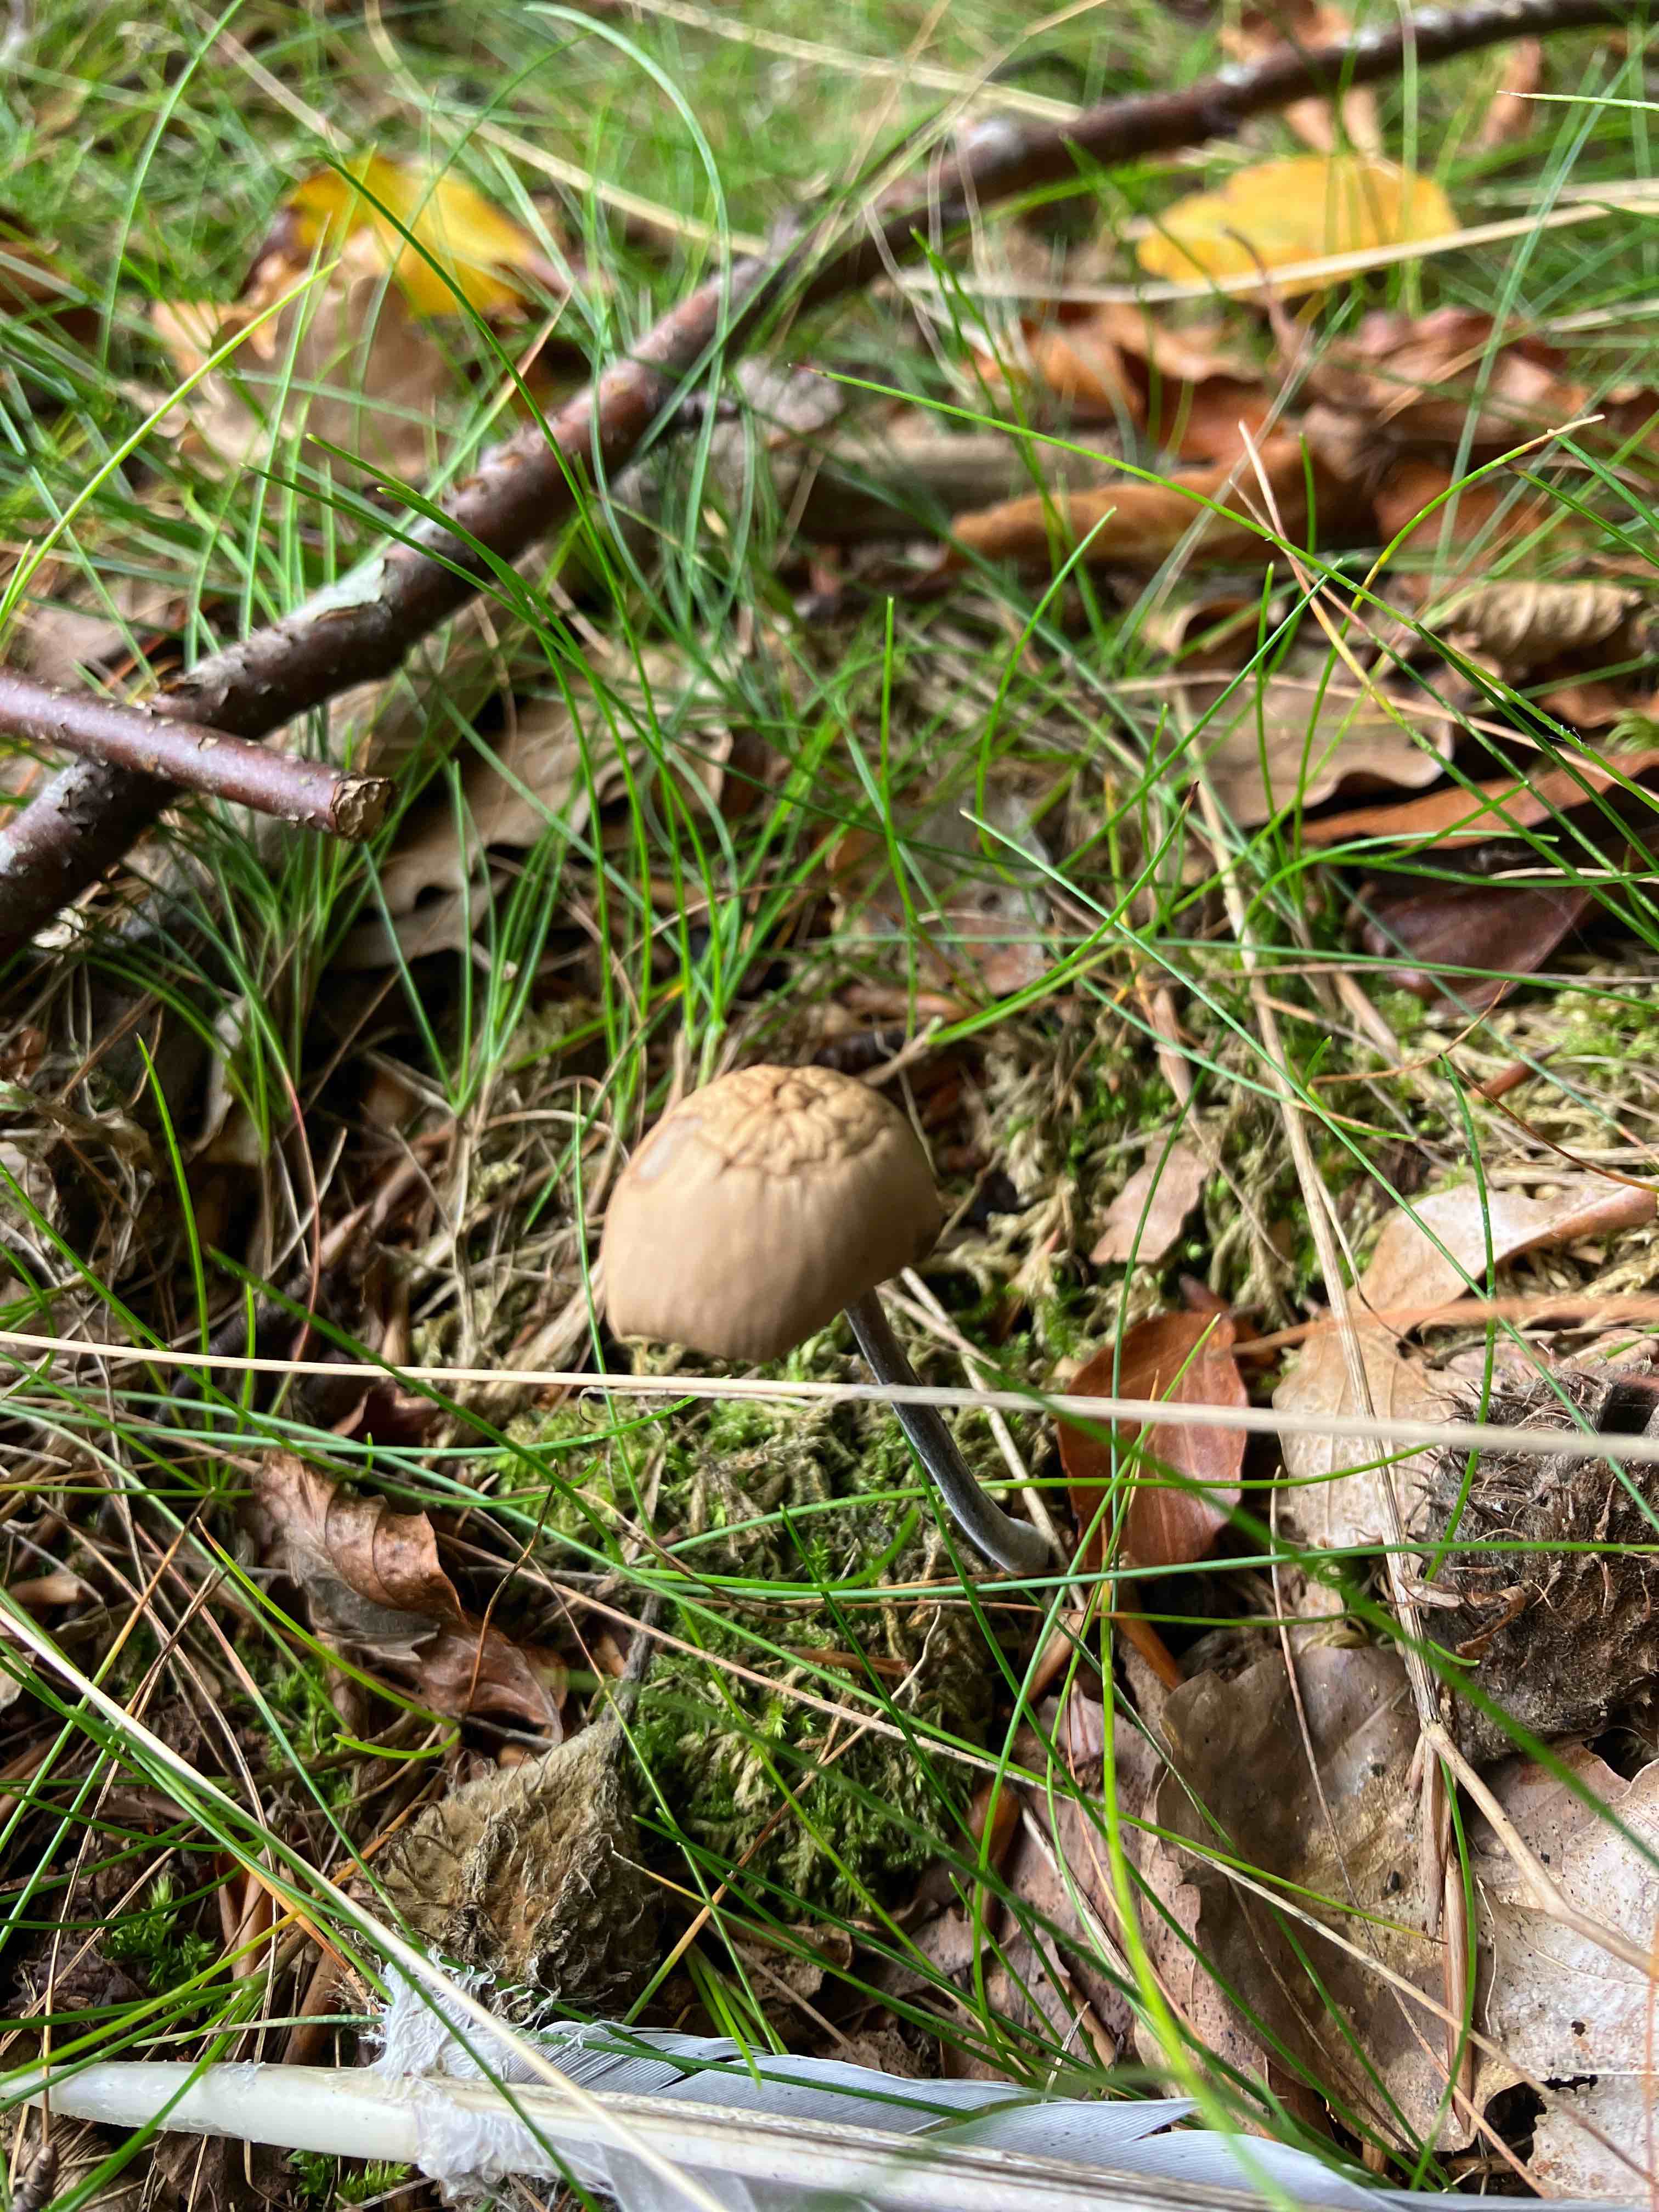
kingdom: Fungi
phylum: Basidiomycota
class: Agaricomycetes
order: Agaricales
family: Omphalotaceae
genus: Mycetinis
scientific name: Mycetinis alliaceus
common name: stor løghat
